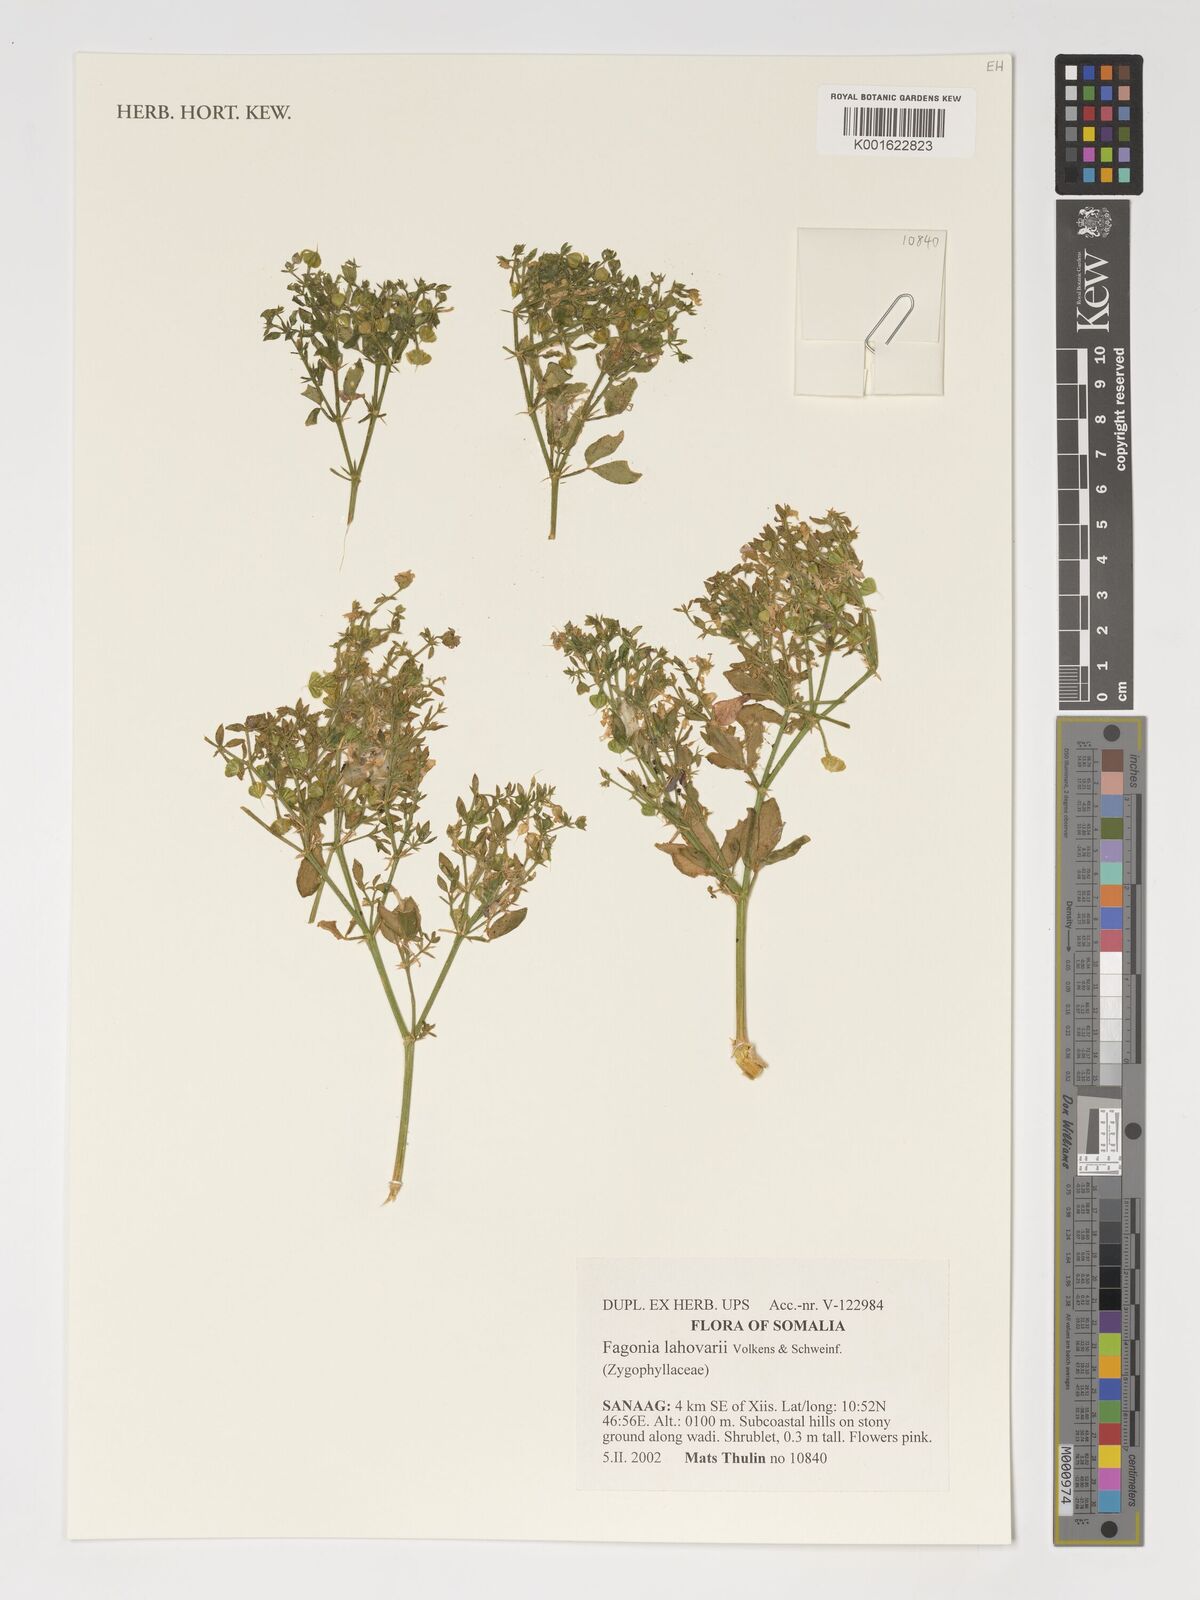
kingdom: Plantae
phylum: Tracheophyta
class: Magnoliopsida
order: Zygophyllales
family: Zygophyllaceae
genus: Fagonia
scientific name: Fagonia lahovarii
